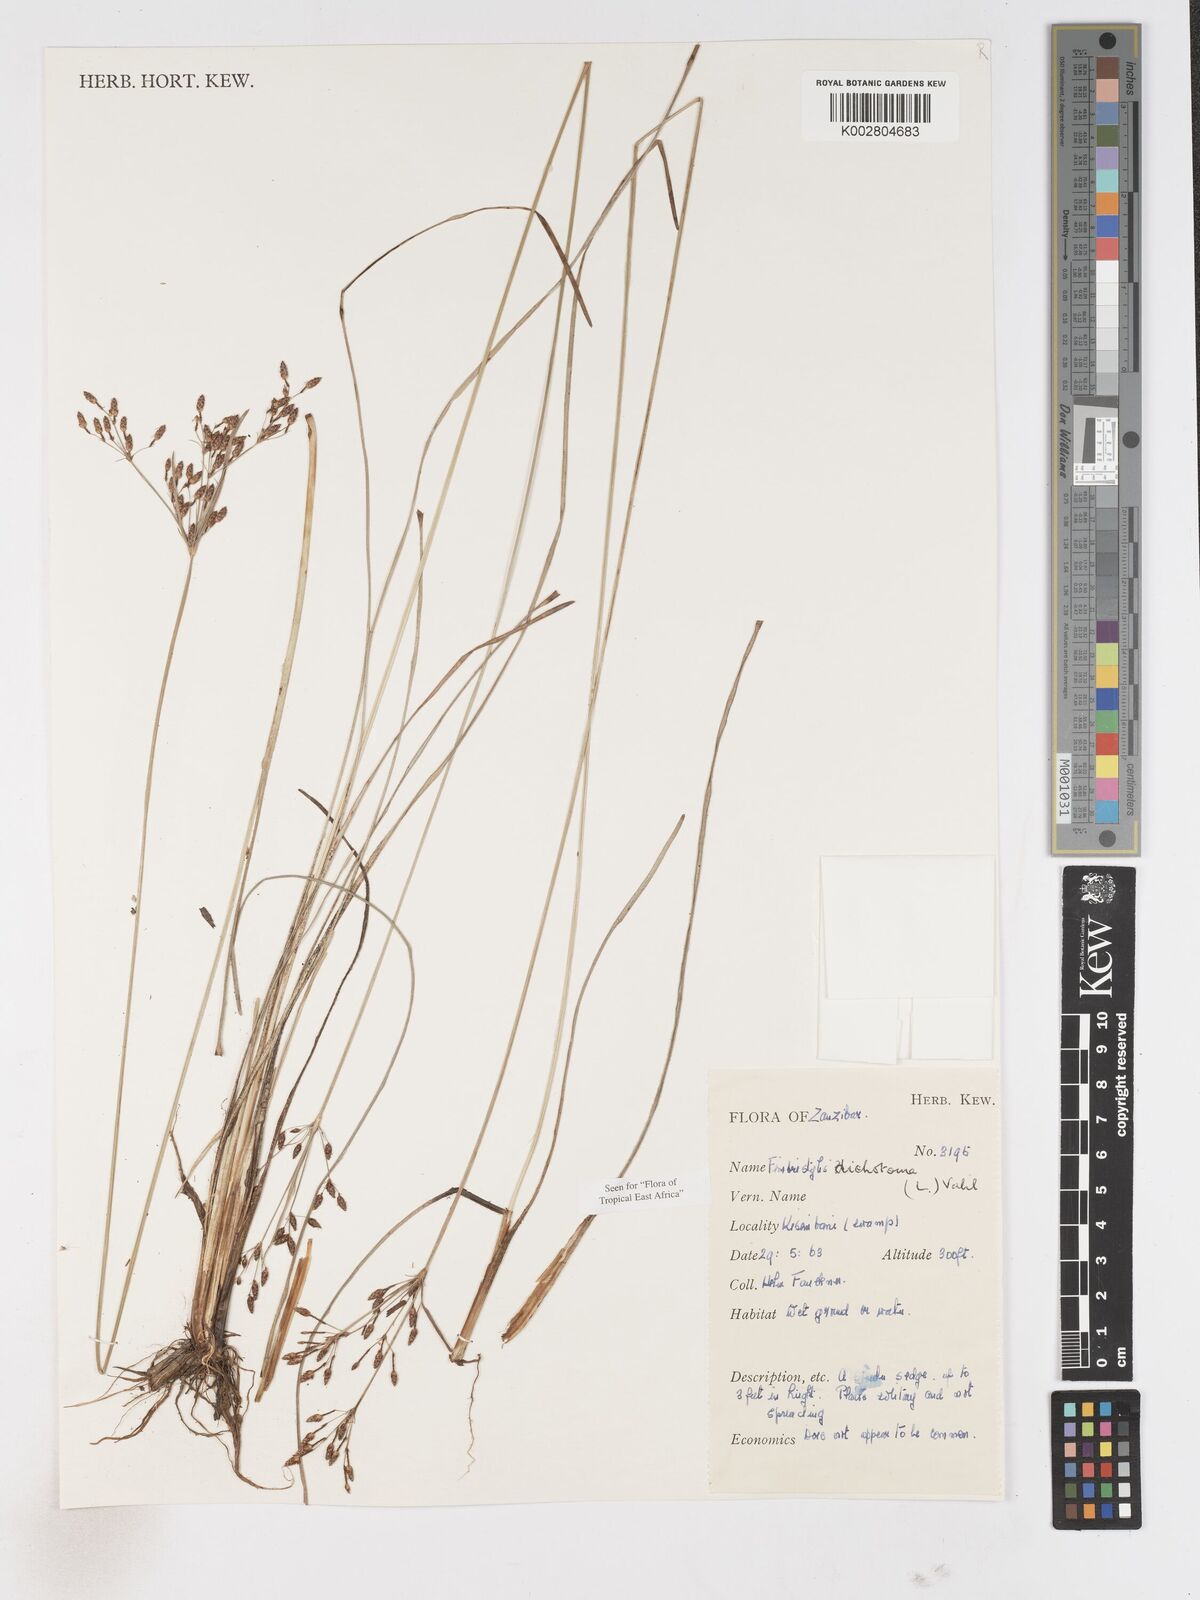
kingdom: Plantae
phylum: Tracheophyta
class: Liliopsida
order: Poales
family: Cyperaceae
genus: Fimbristylis
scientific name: Fimbristylis dichotoma
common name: Forked fimbry
